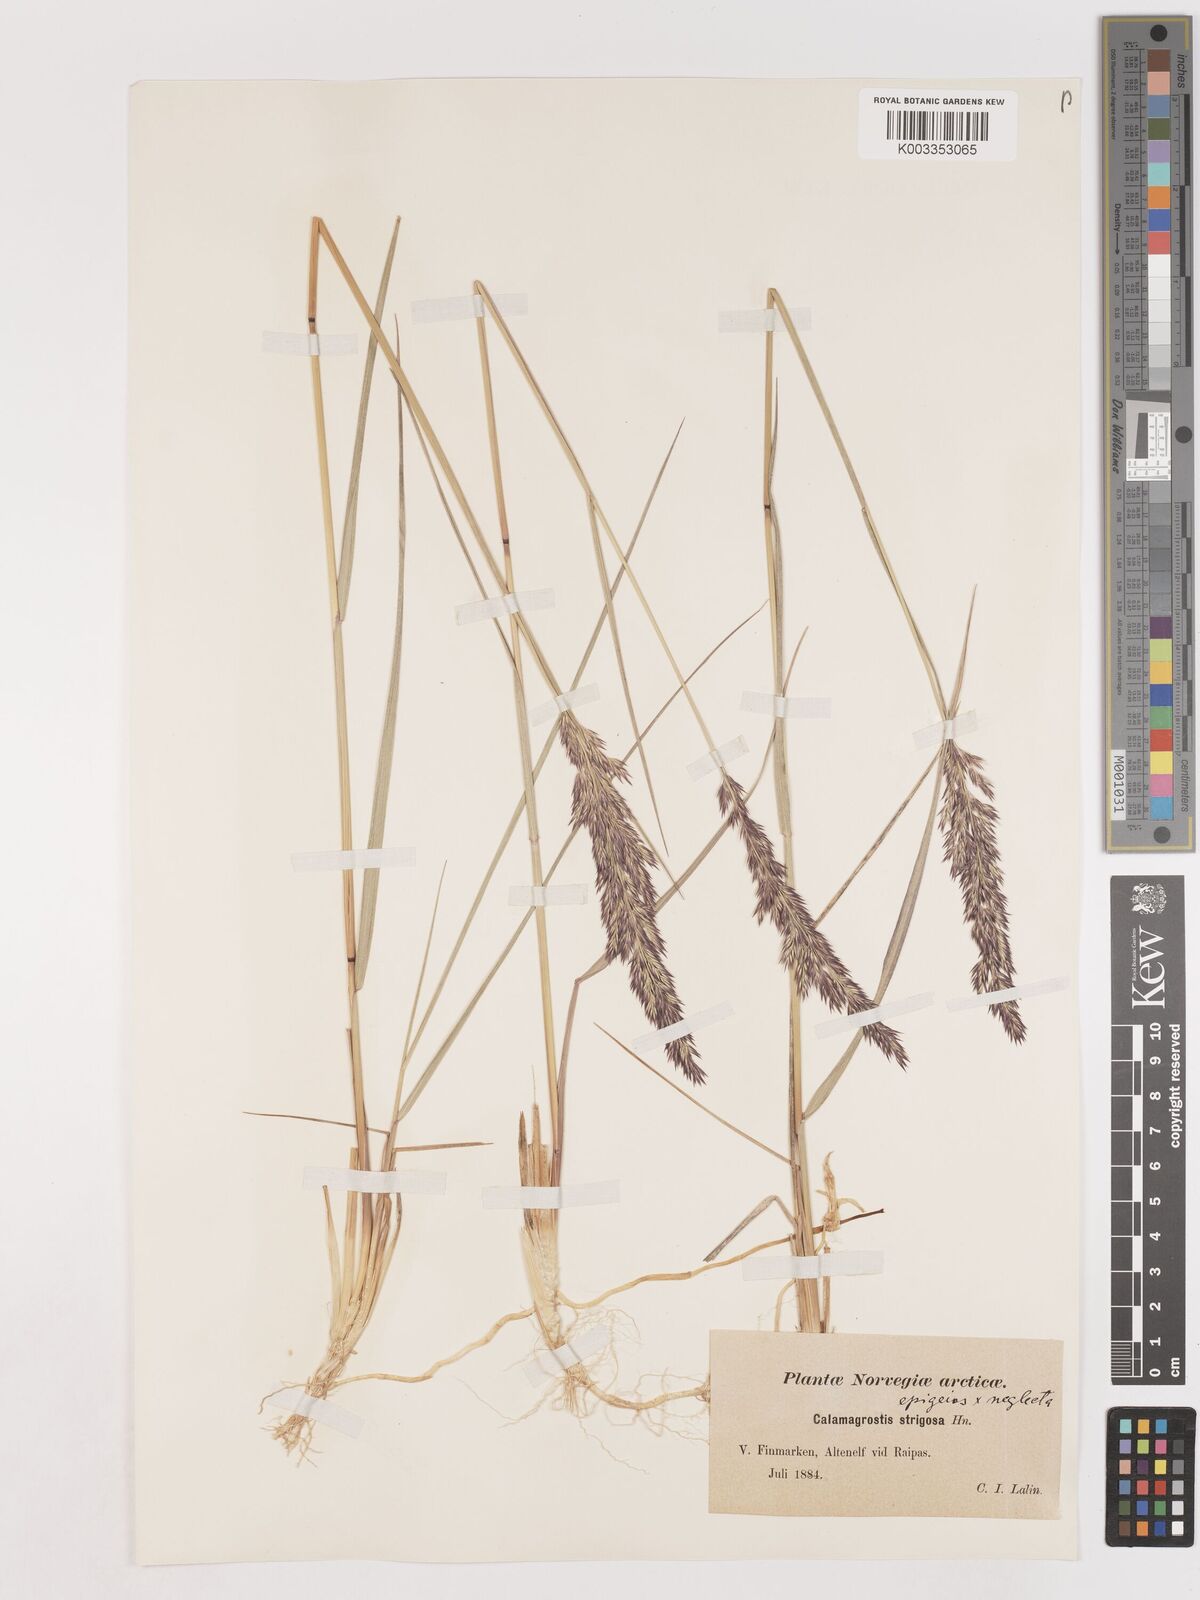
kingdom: Plantae
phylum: Tracheophyta
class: Liliopsida
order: Poales
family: Poaceae
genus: Calamagrostis
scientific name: Calamagrostis epigejos
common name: Wood small-reed
